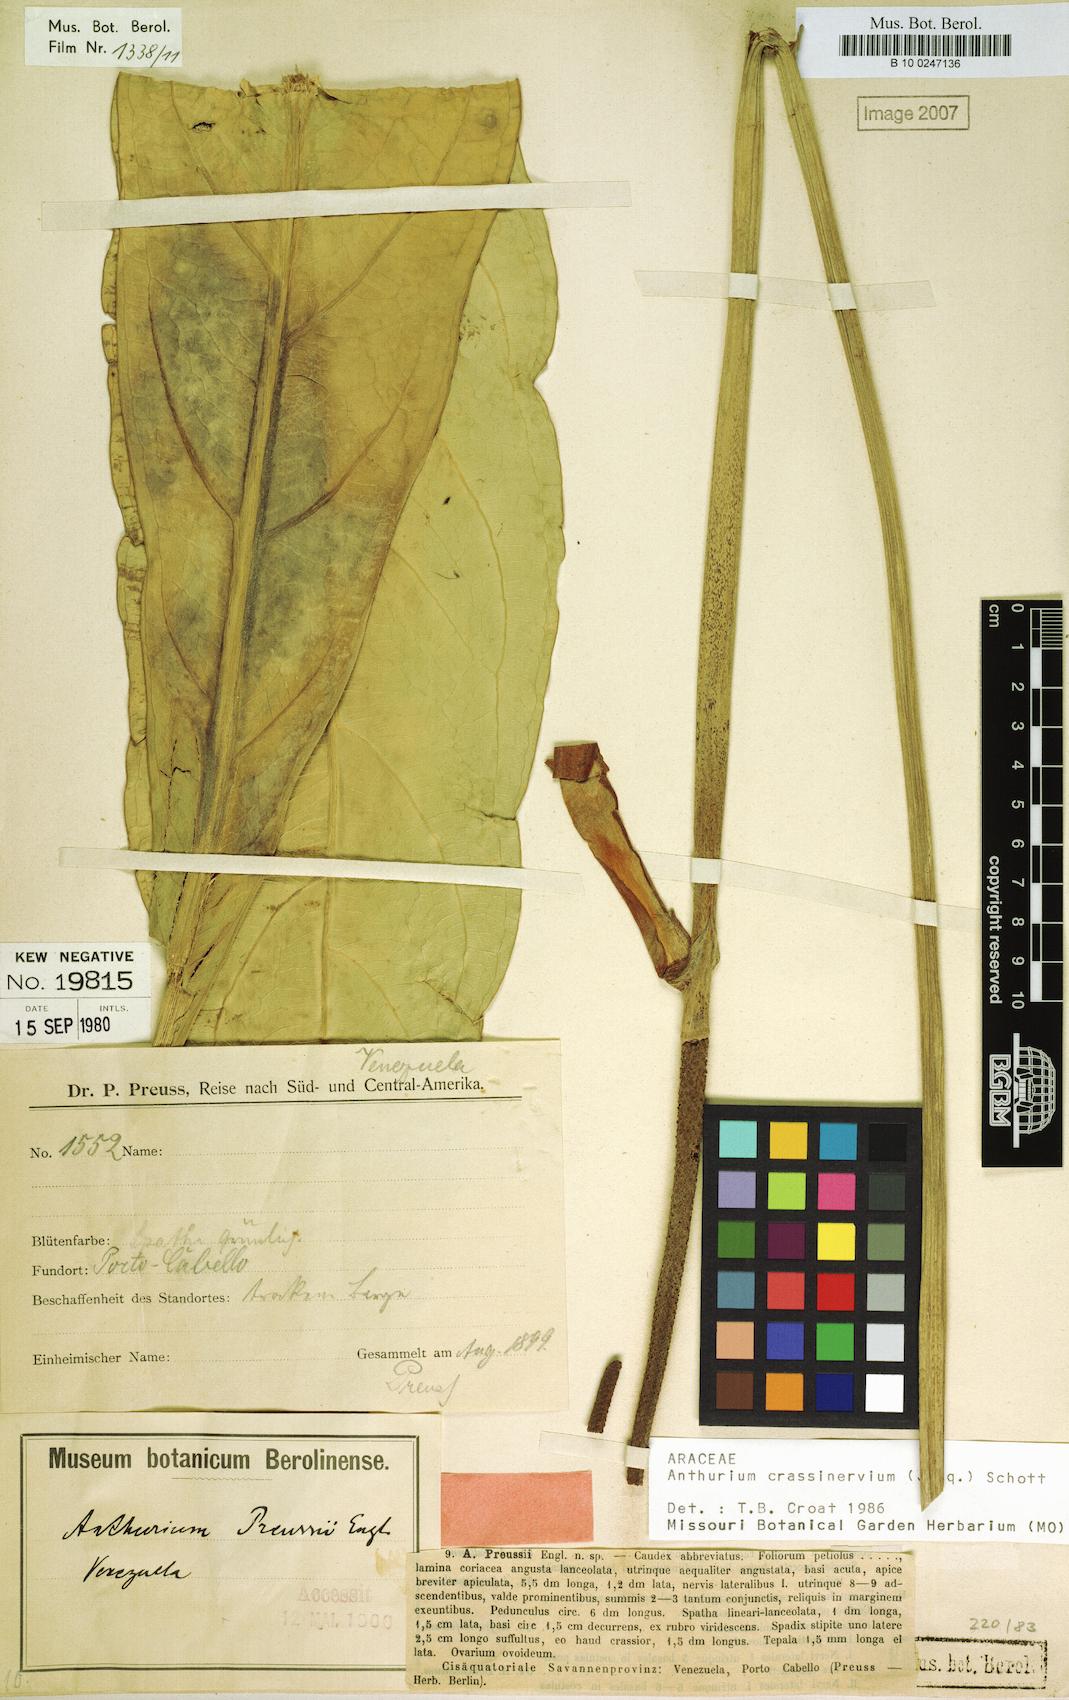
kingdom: Plantae
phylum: Tracheophyta
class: Liliopsida
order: Alismatales
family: Araceae
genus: Anthurium
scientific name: Anthurium crassinervium
